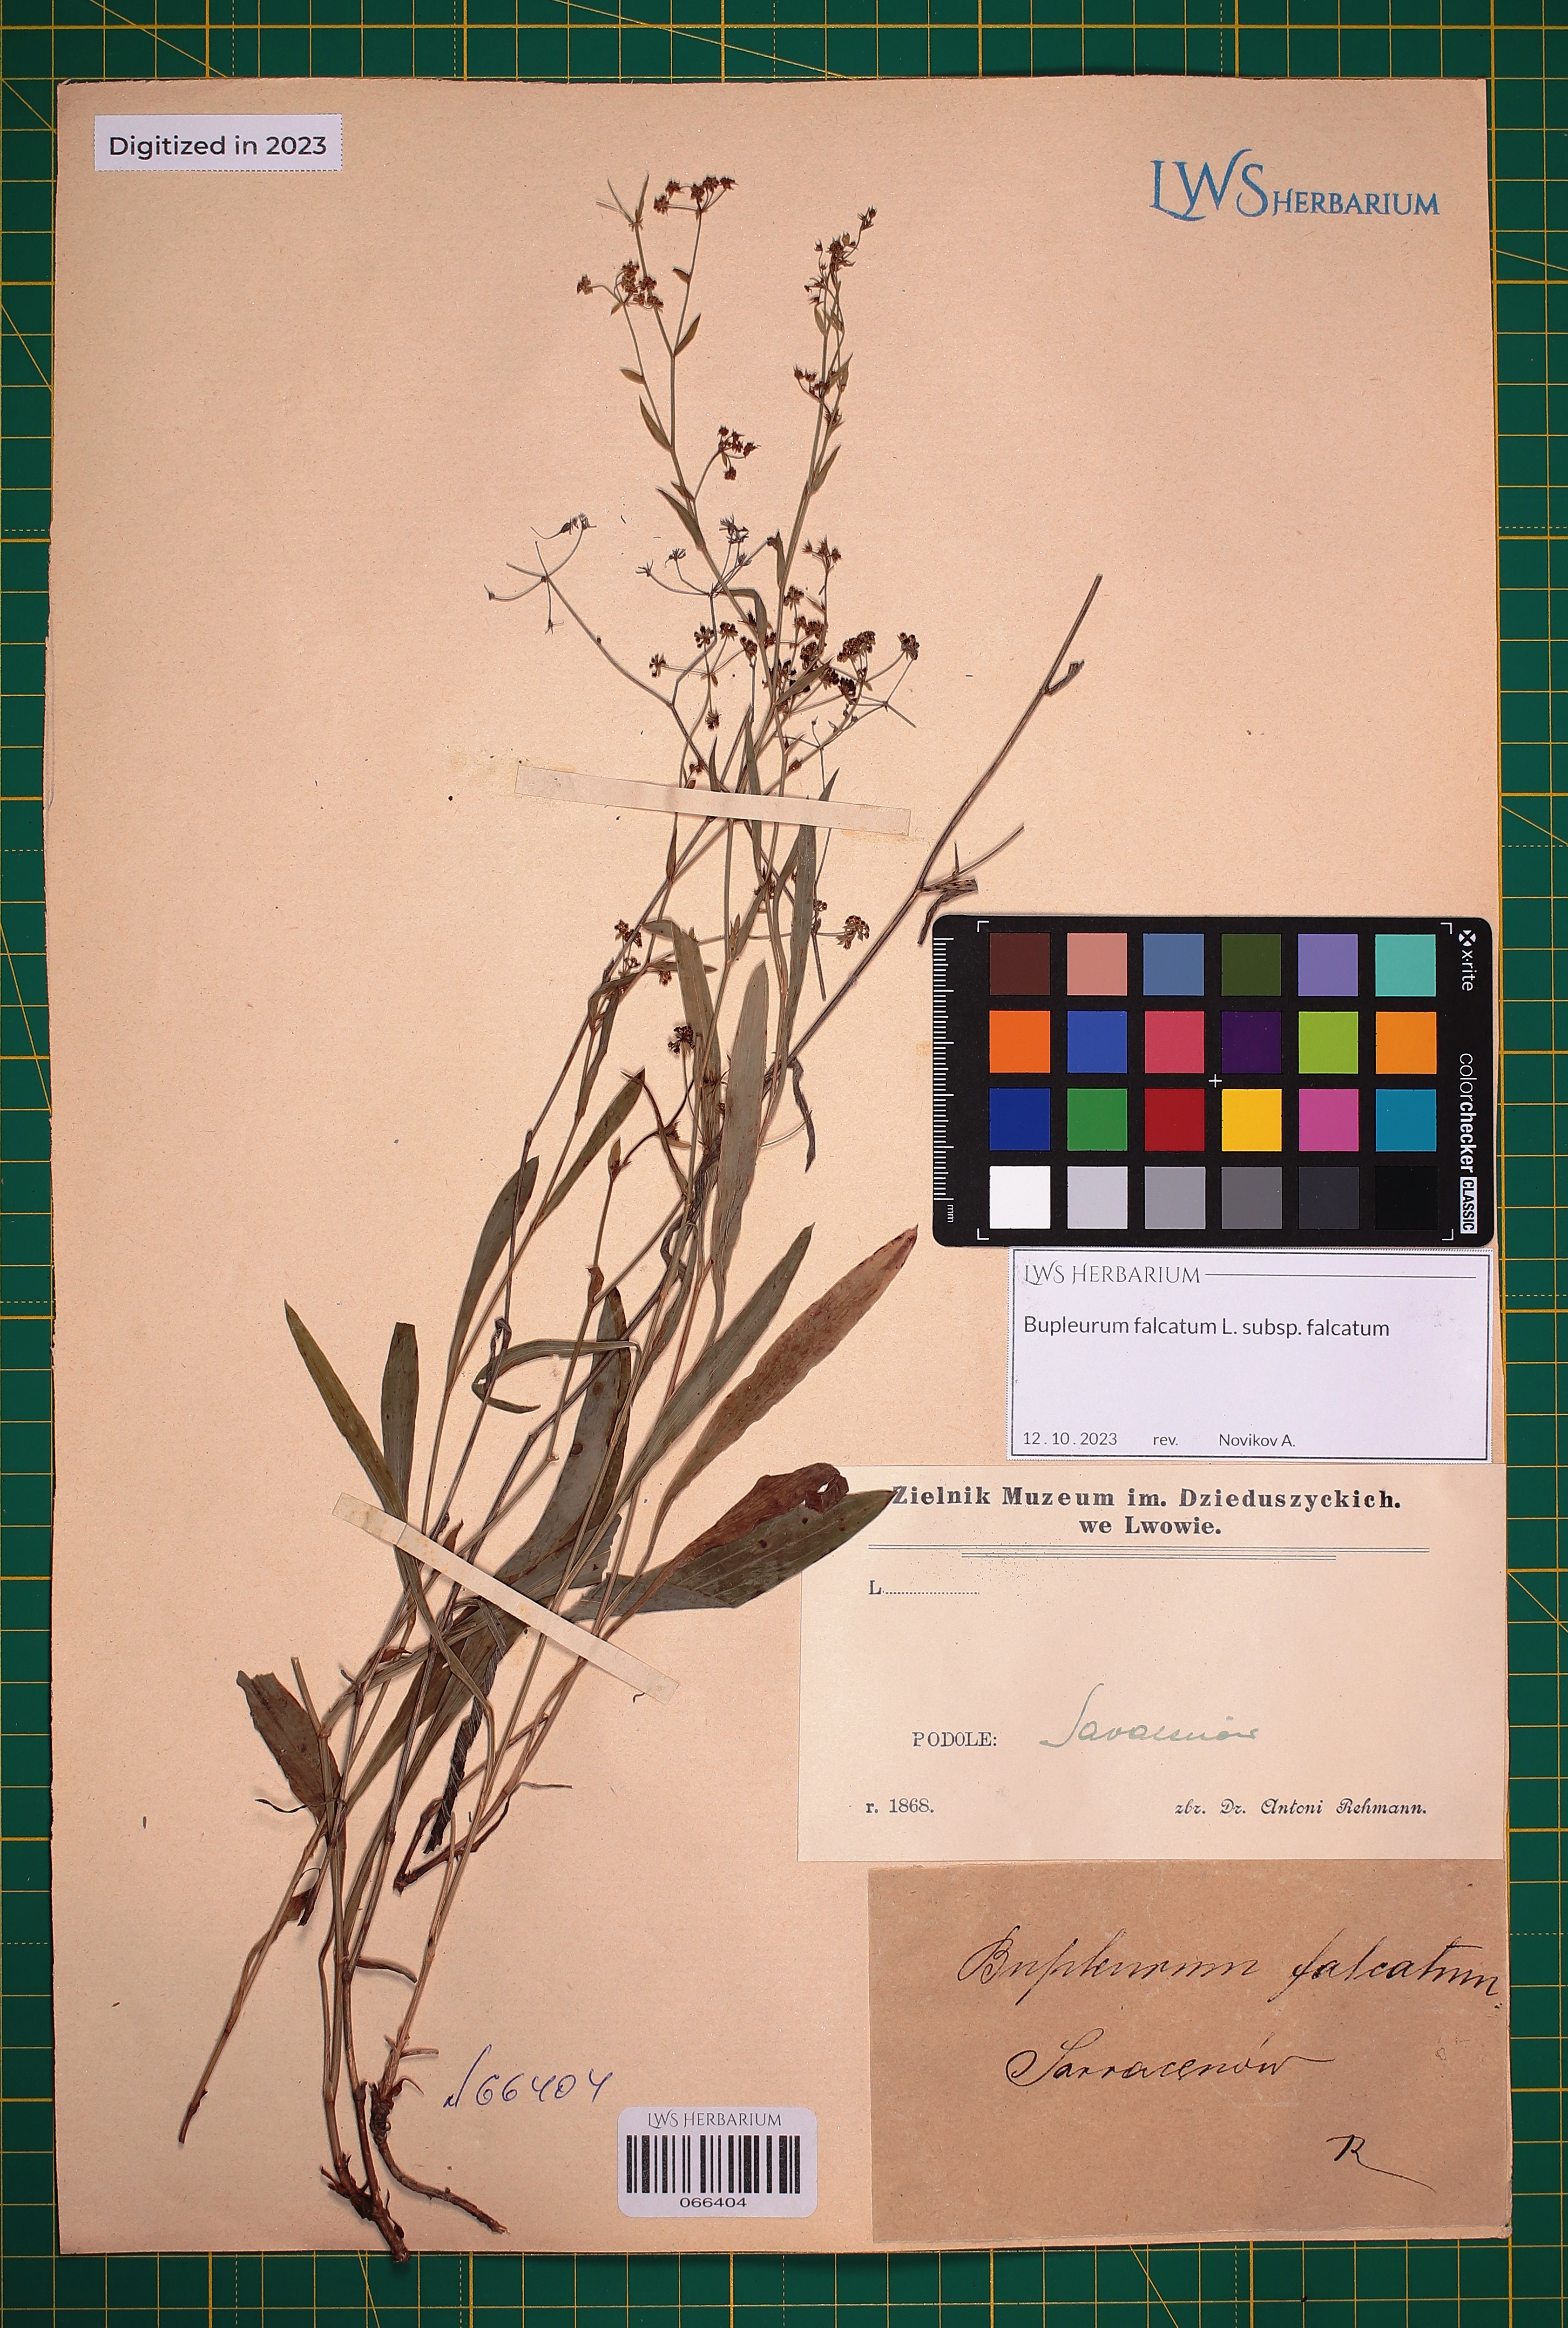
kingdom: Plantae
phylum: Tracheophyta
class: Magnoliopsida
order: Apiales
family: Apiaceae
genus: Bupleurum
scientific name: Bupleurum falcatum
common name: Sickle-leaved hare's-ear
